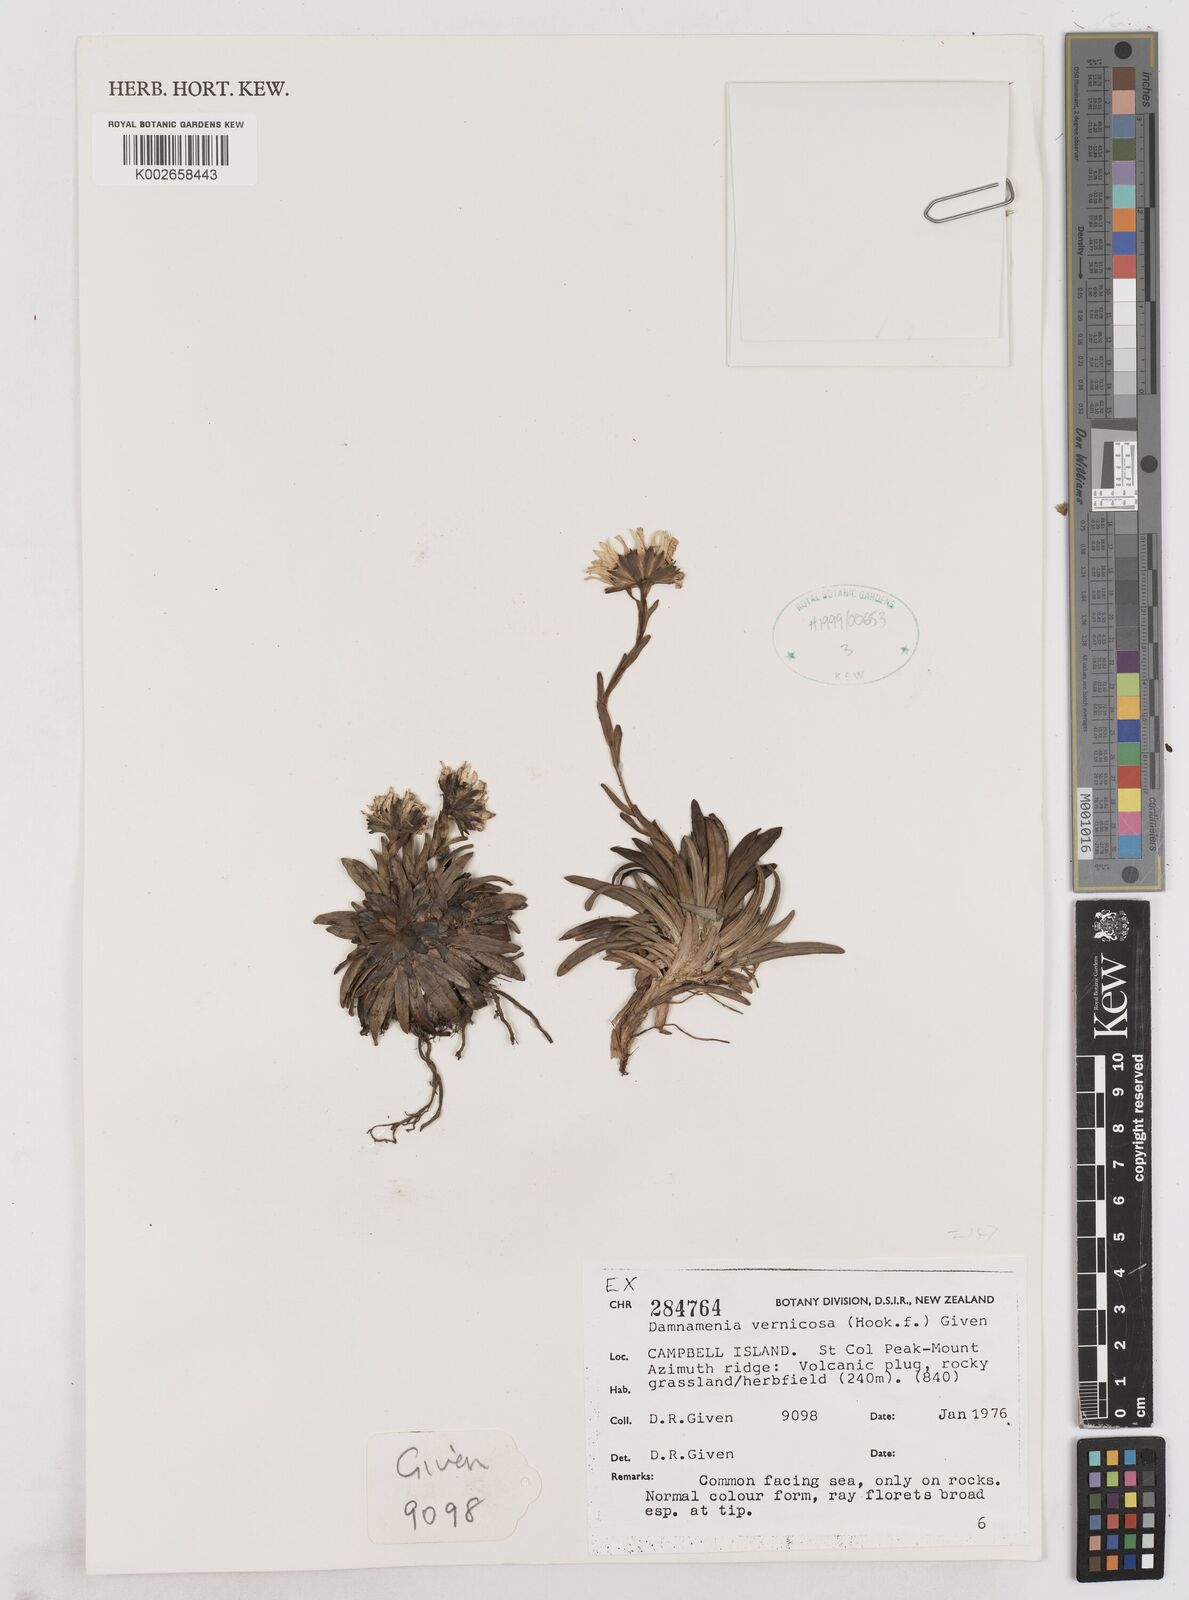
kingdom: Plantae
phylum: Tracheophyta
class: Magnoliopsida
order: Asterales
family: Asteraceae
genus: Damnamenia
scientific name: Damnamenia vernicosa
